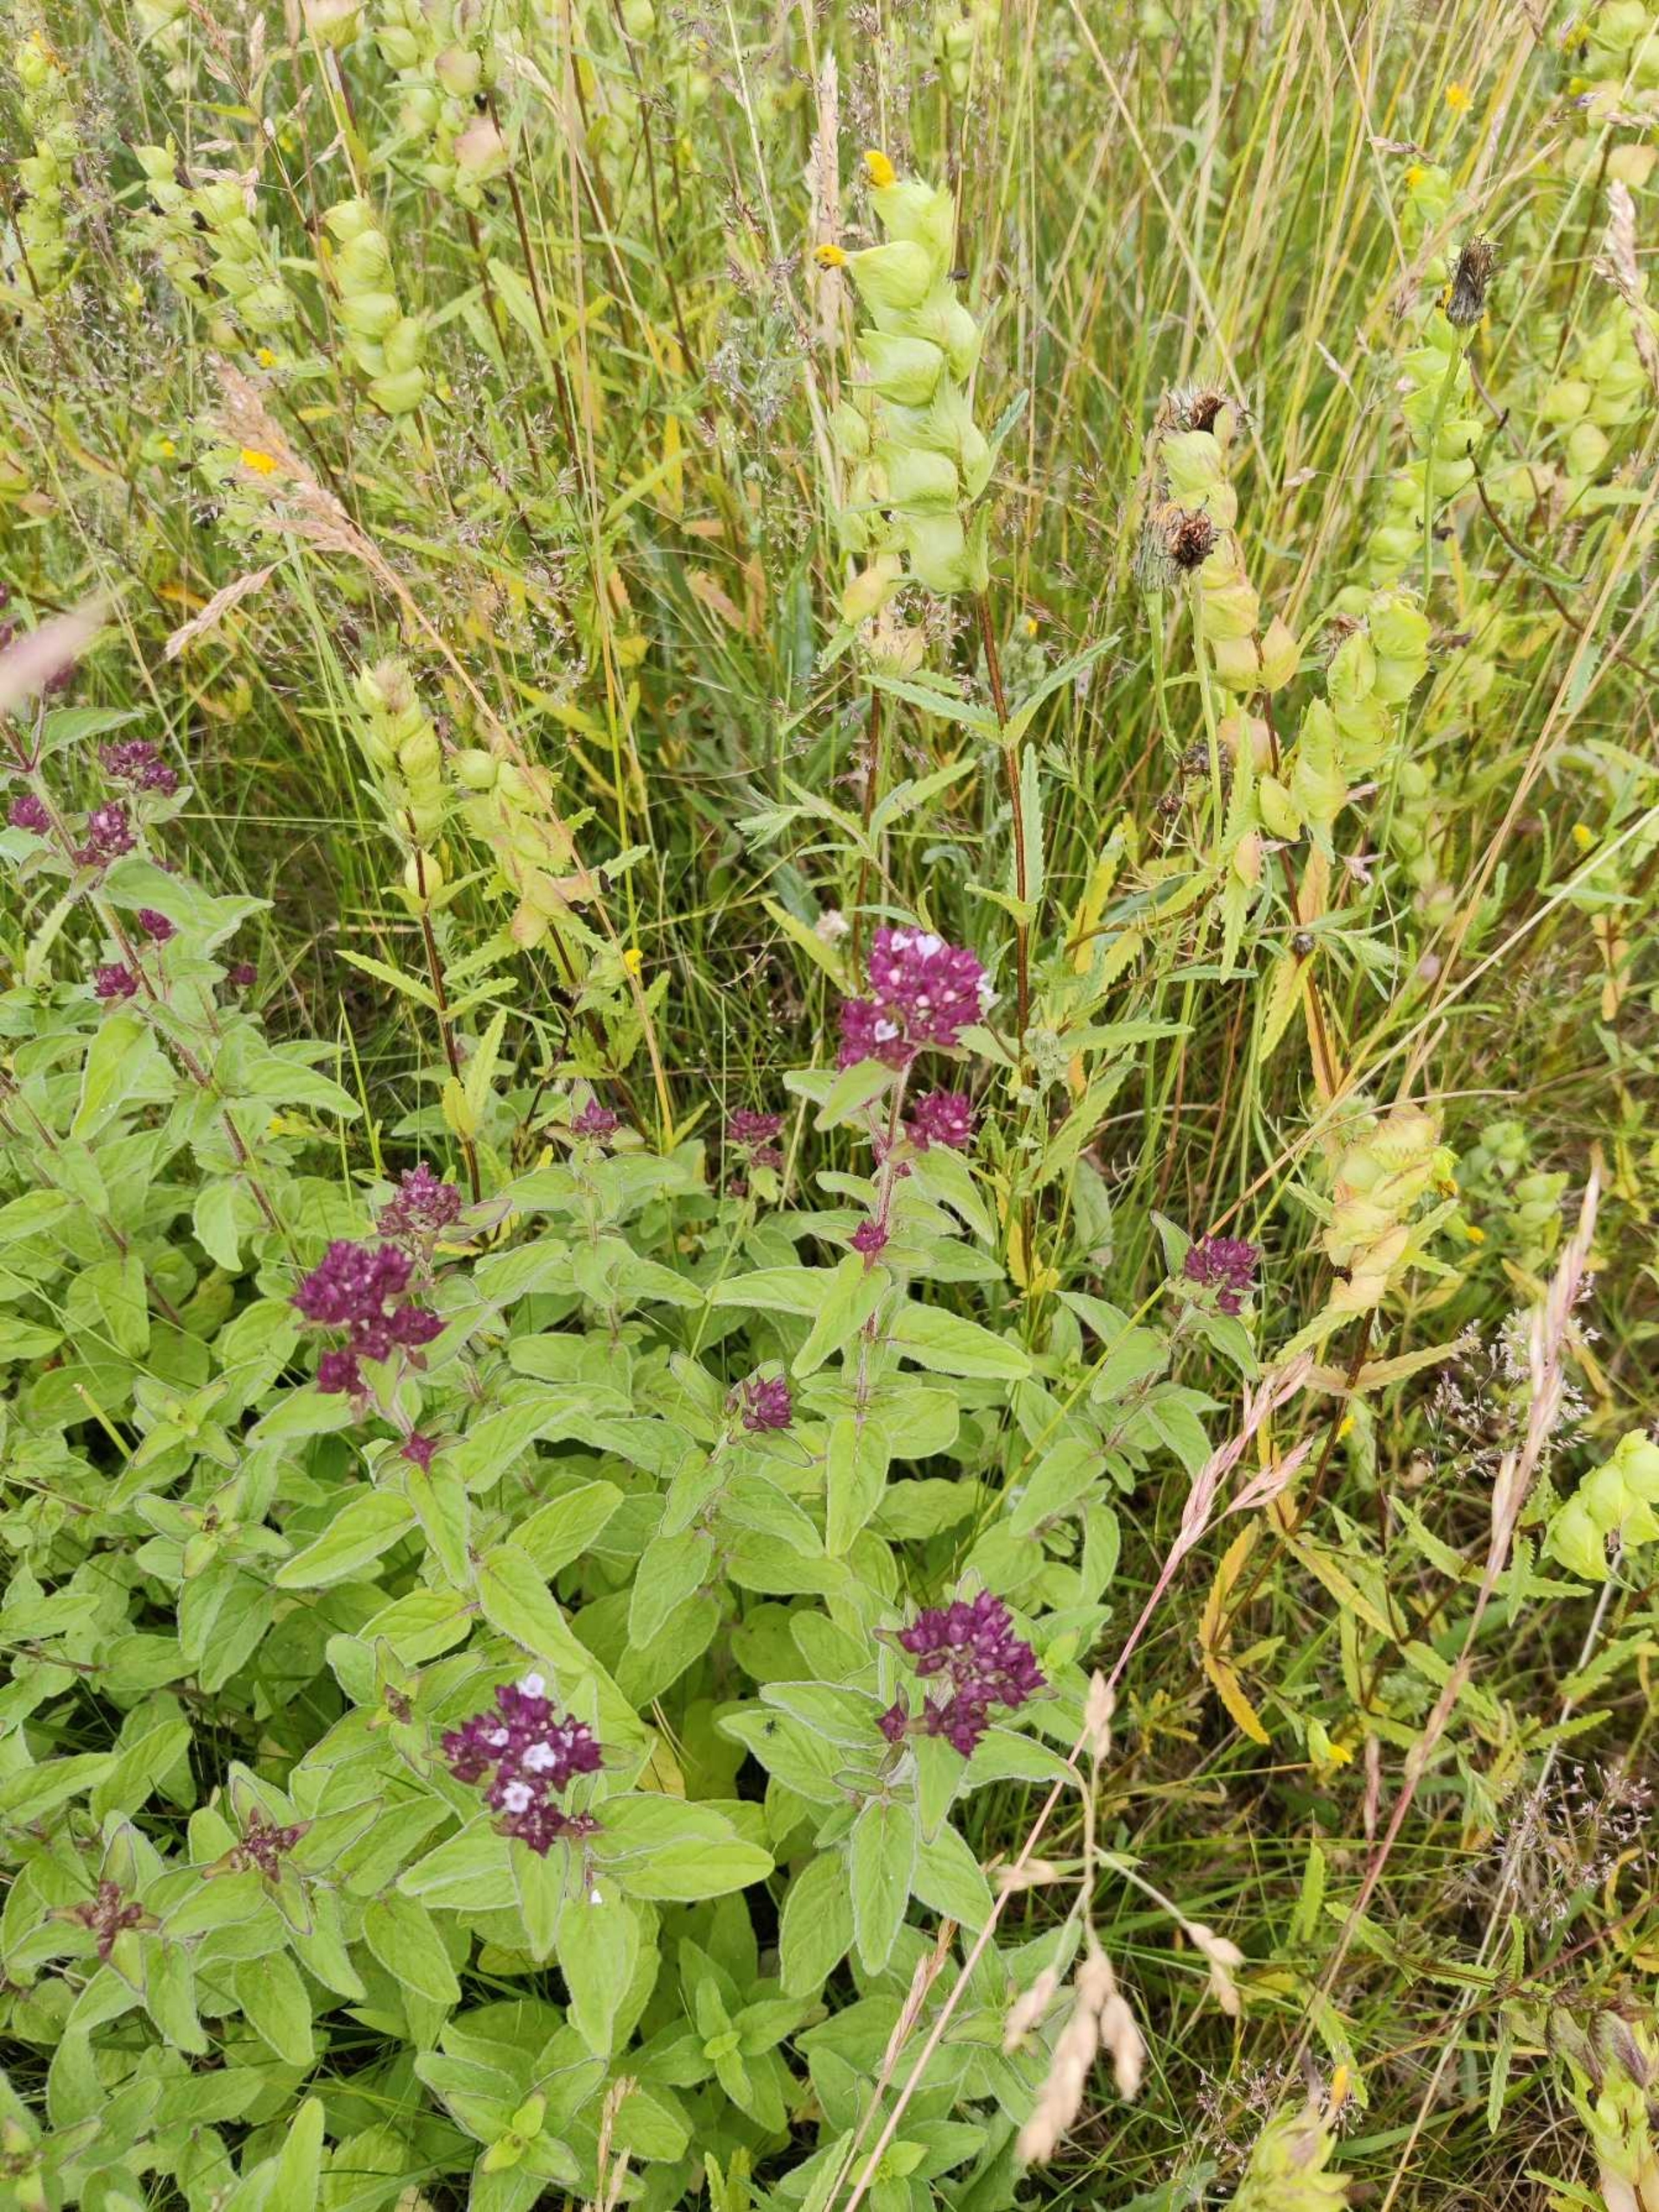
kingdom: Plantae
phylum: Tracheophyta
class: Magnoliopsida
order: Lamiales
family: Lamiaceae
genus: Origanum
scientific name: Origanum vulgare
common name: Merian
